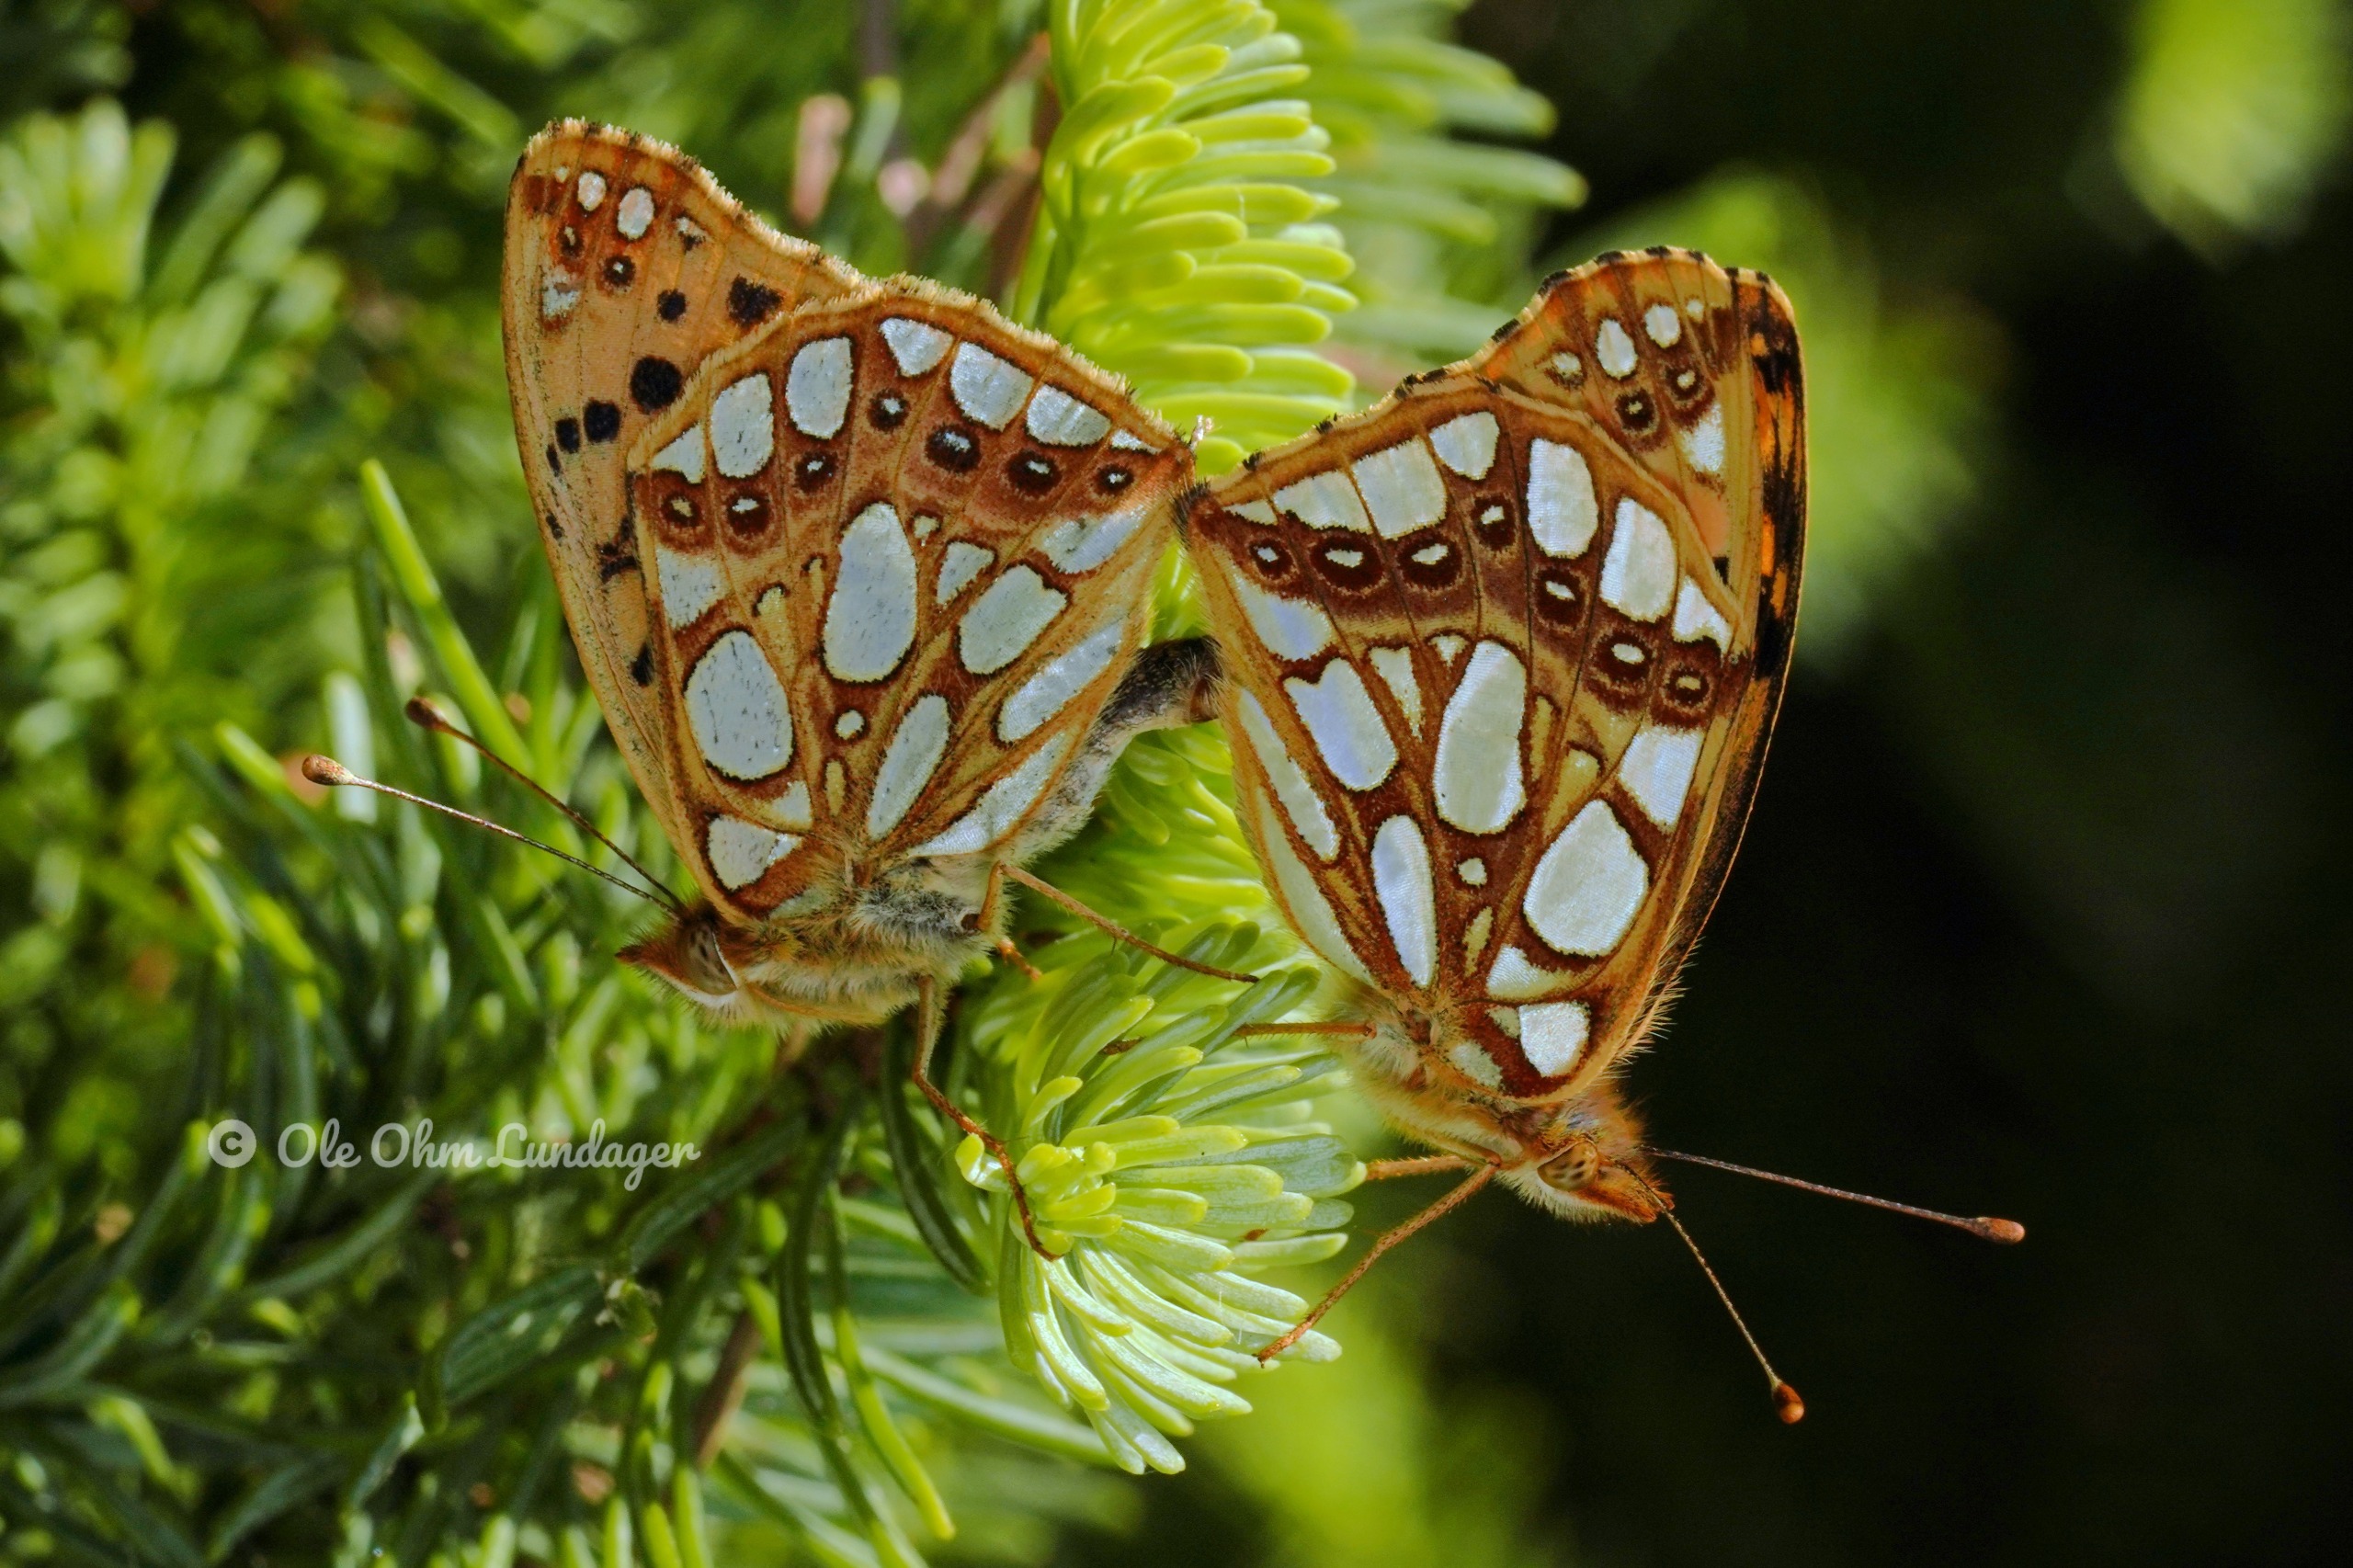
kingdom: Animalia
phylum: Arthropoda
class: Insecta
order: Lepidoptera
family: Nymphalidae
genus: Issoria
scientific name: Issoria lathonia
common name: Storplettet perlemorsommerfugl
